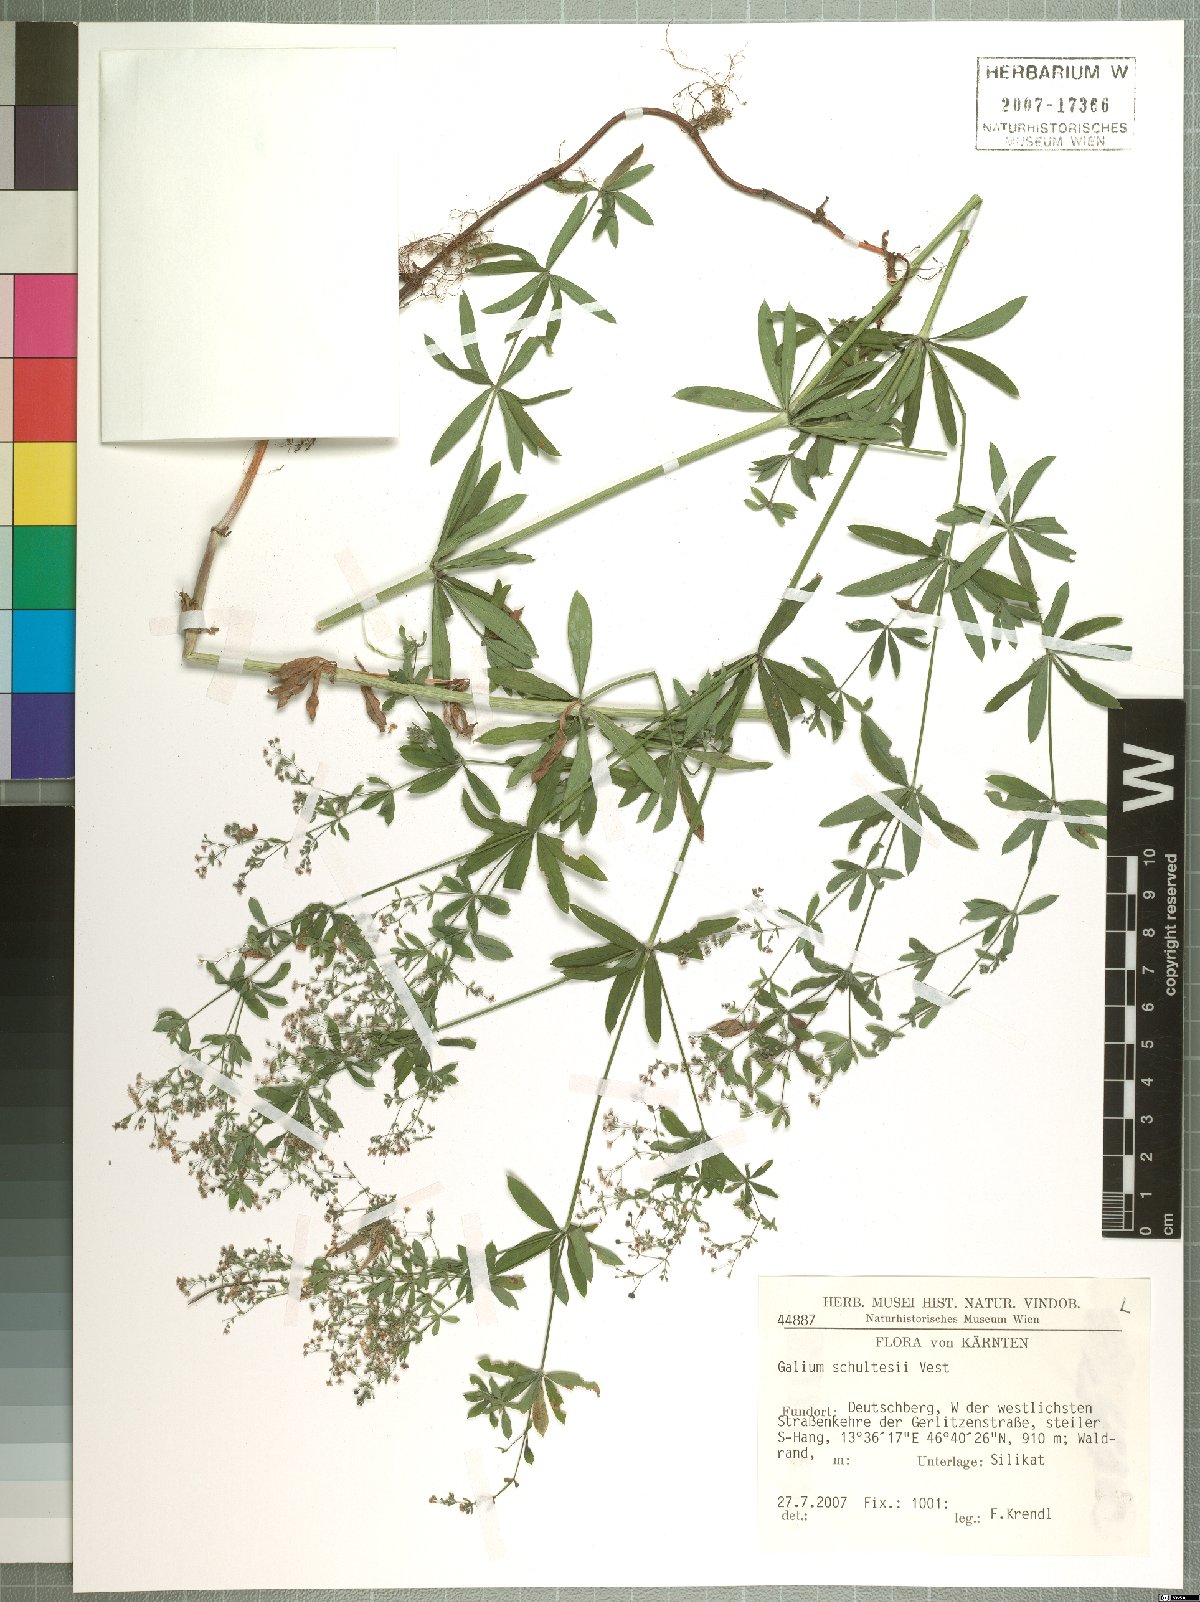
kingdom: Plantae
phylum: Tracheophyta
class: Magnoliopsida
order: Gentianales
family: Rubiaceae
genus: Galium
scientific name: Galium intermedium
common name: Bedstraw
